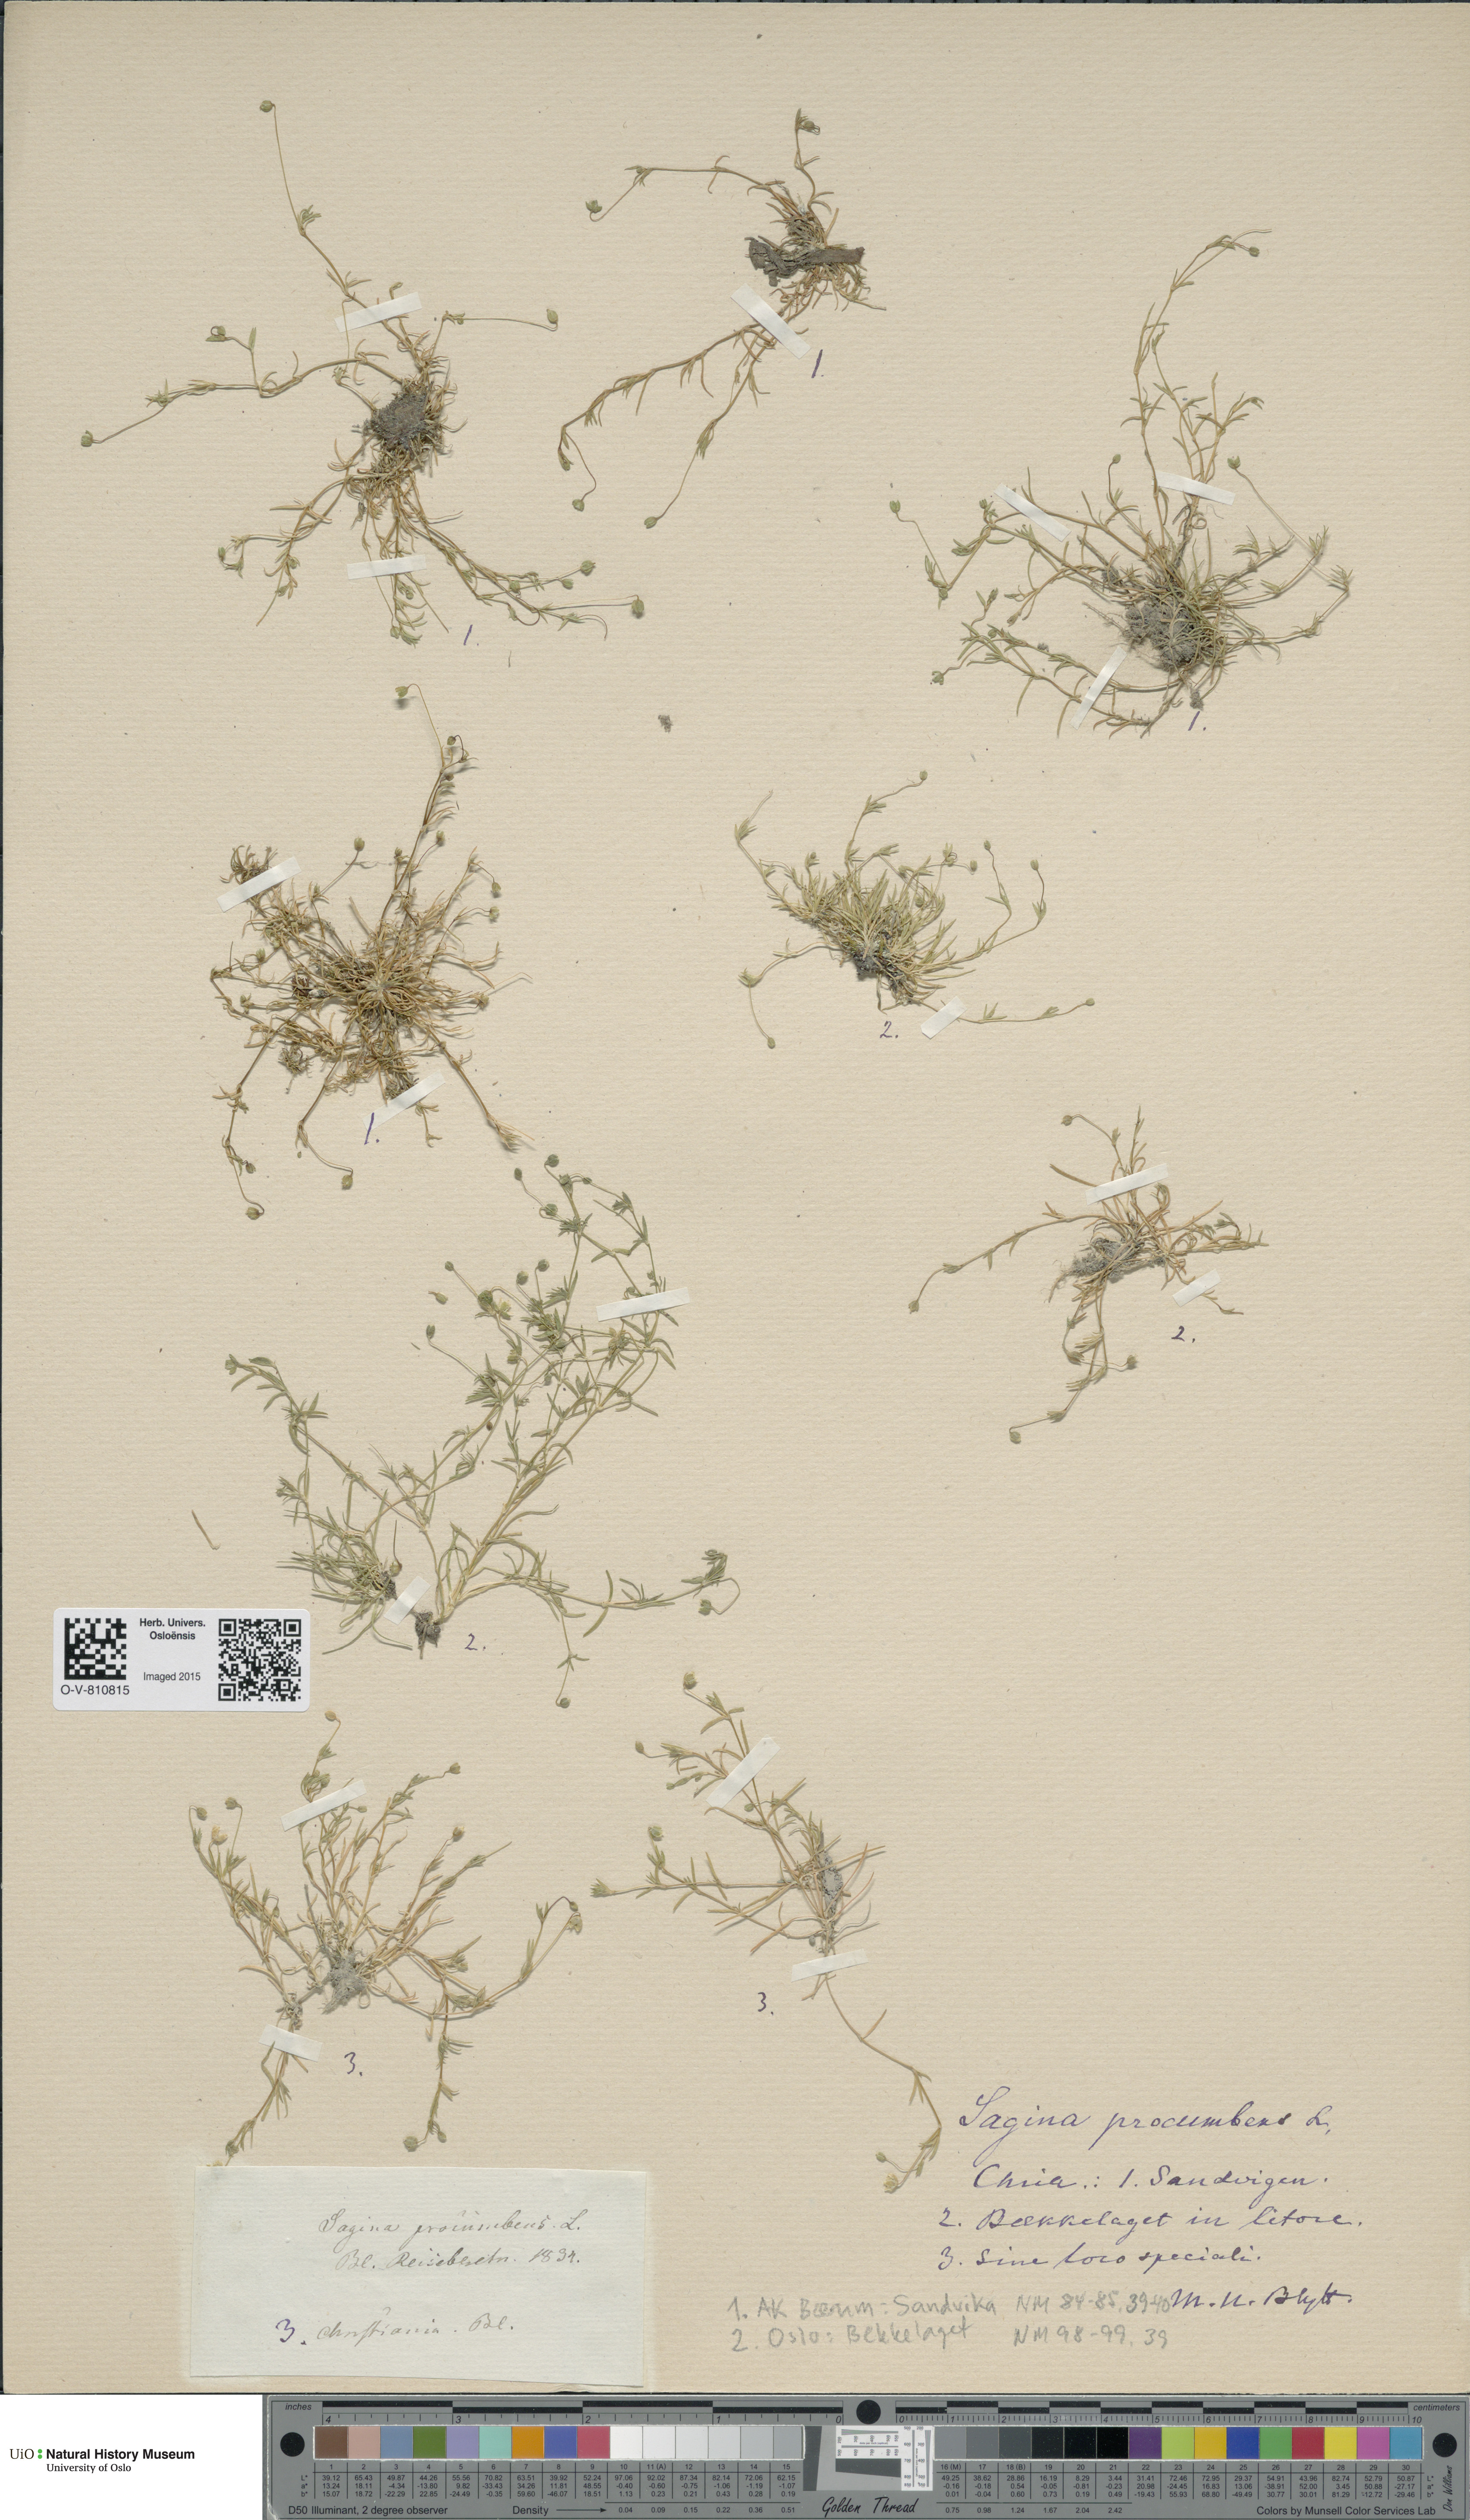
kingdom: Plantae
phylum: Tracheophyta
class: Magnoliopsida
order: Caryophyllales
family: Caryophyllaceae
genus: Sagina
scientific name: Sagina procumbens
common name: Procumbent pearlwort
